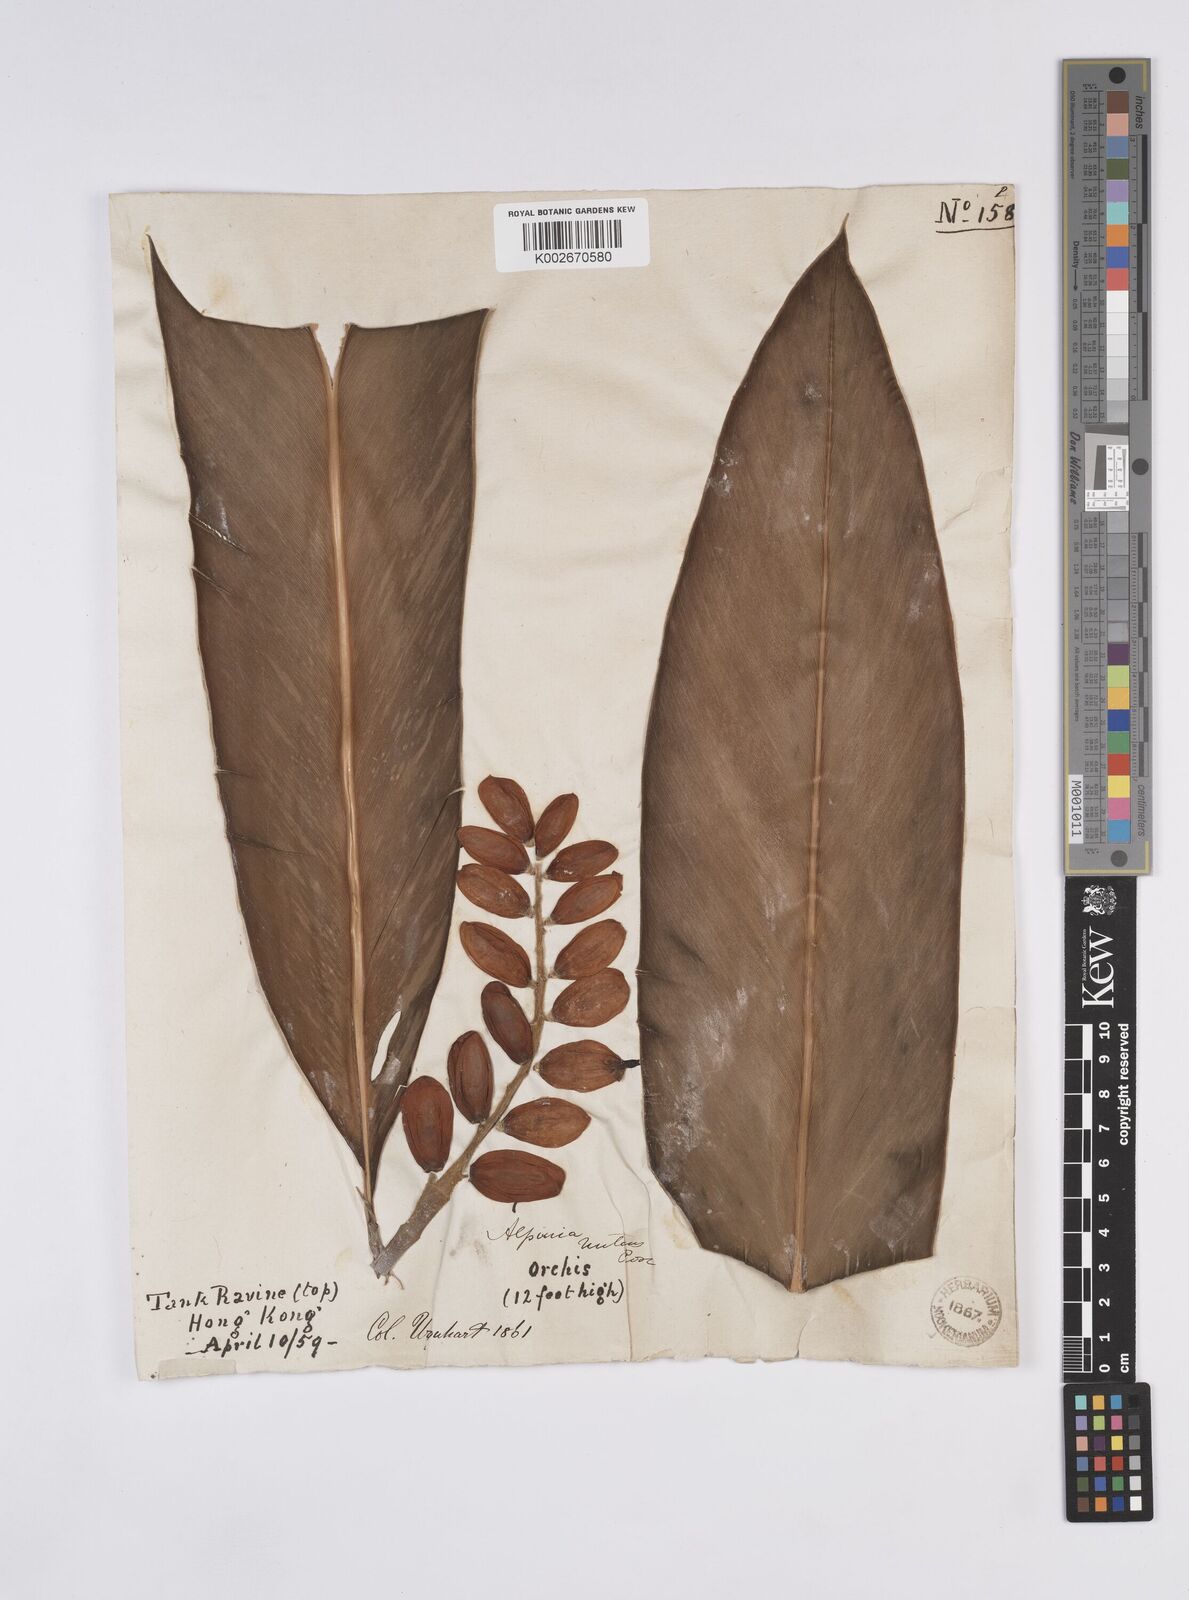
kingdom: Plantae
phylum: Tracheophyta
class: Liliopsida
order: Zingiberales
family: Zingiberaceae
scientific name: Zingiberaceae
